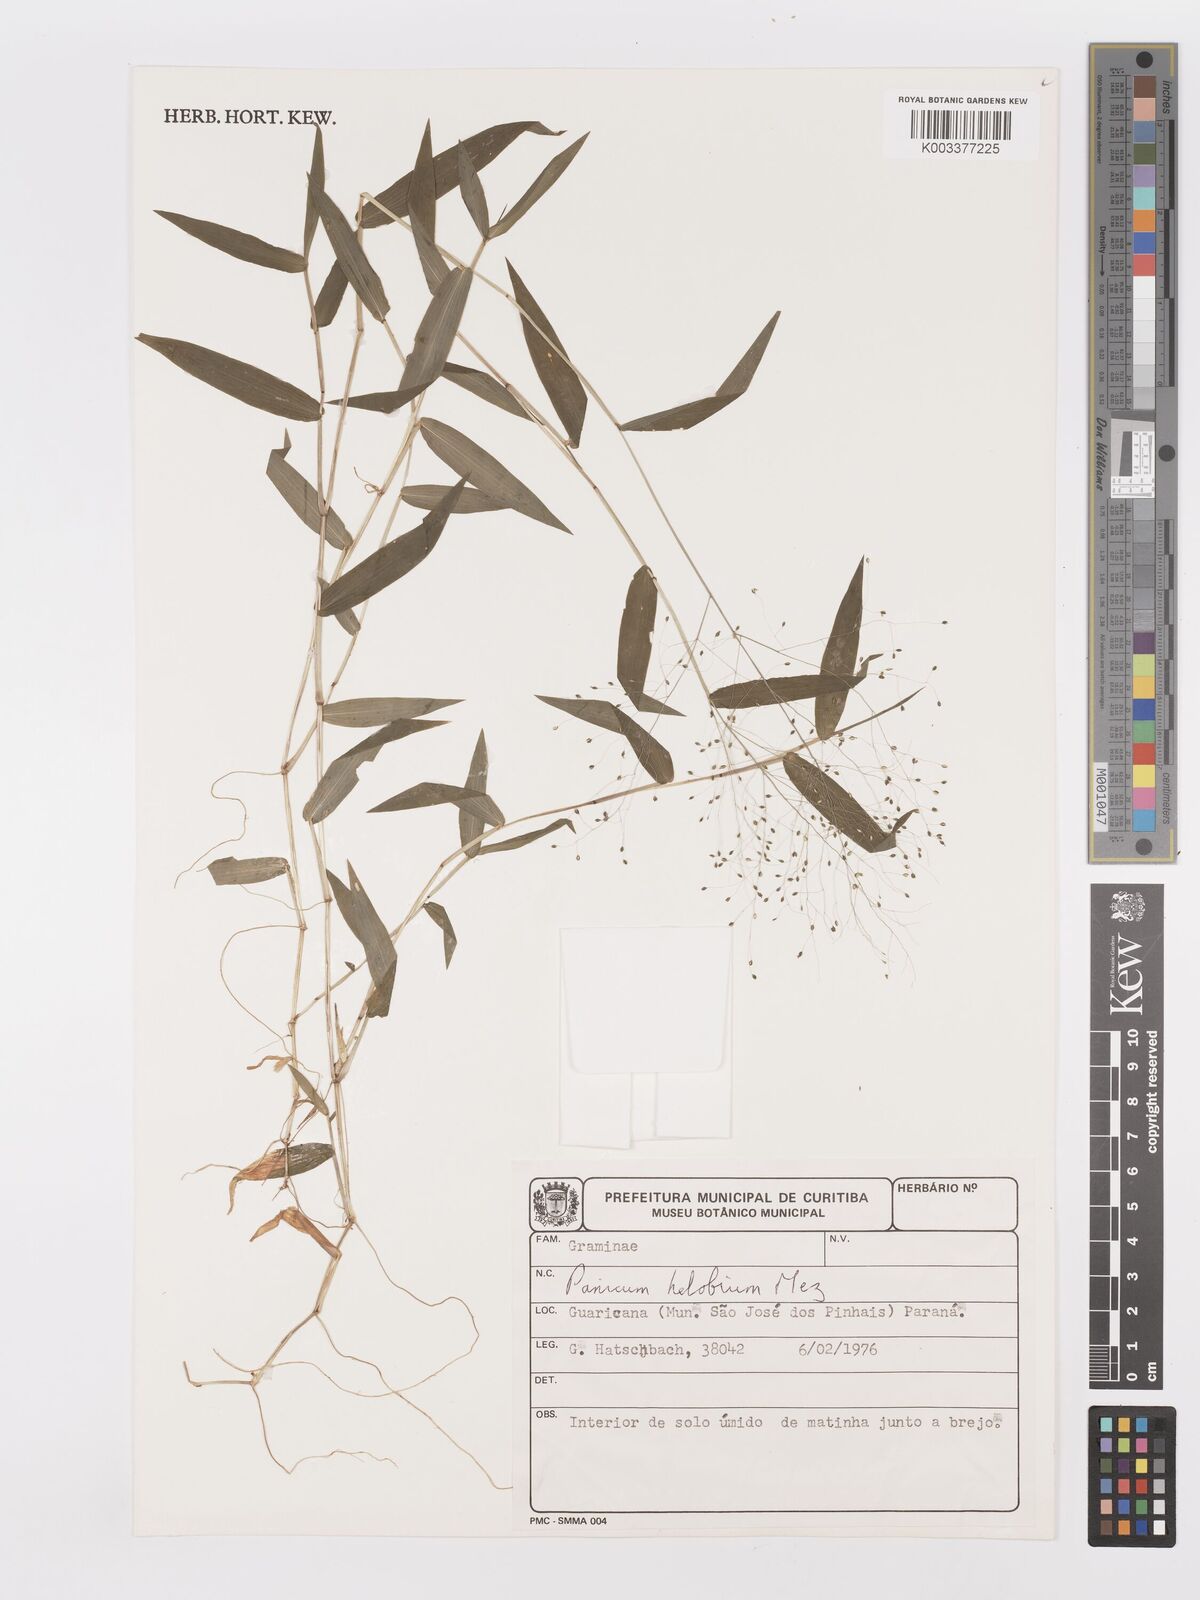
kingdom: Plantae
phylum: Tracheophyta
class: Liliopsida
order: Poales
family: Poaceae
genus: Trichanthecium
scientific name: Trichanthecium schwackeanum
